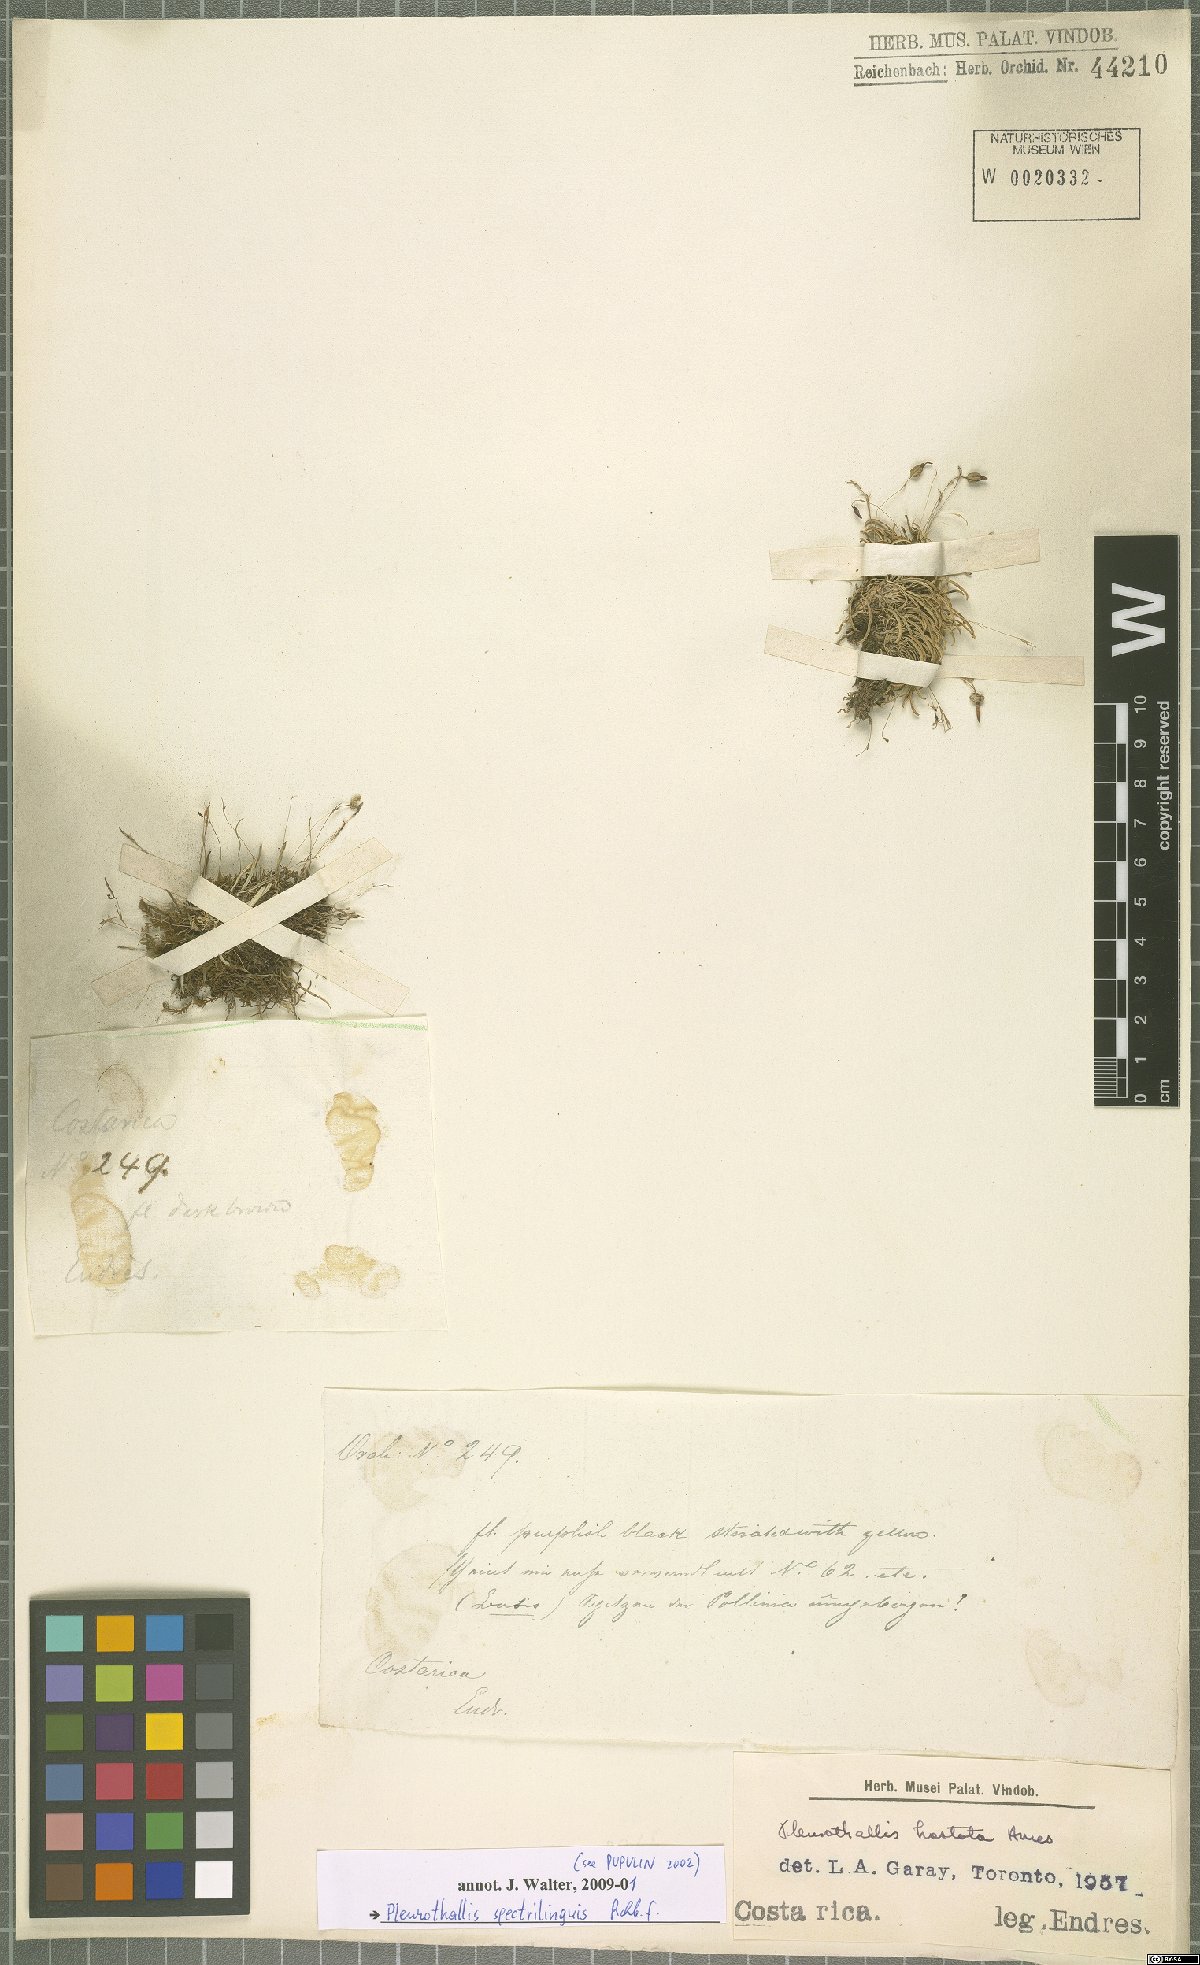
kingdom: Plantae
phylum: Tracheophyta
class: Liliopsida
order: Asparagales
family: Orchidaceae
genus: Muscarella
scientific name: Muscarella marginata
